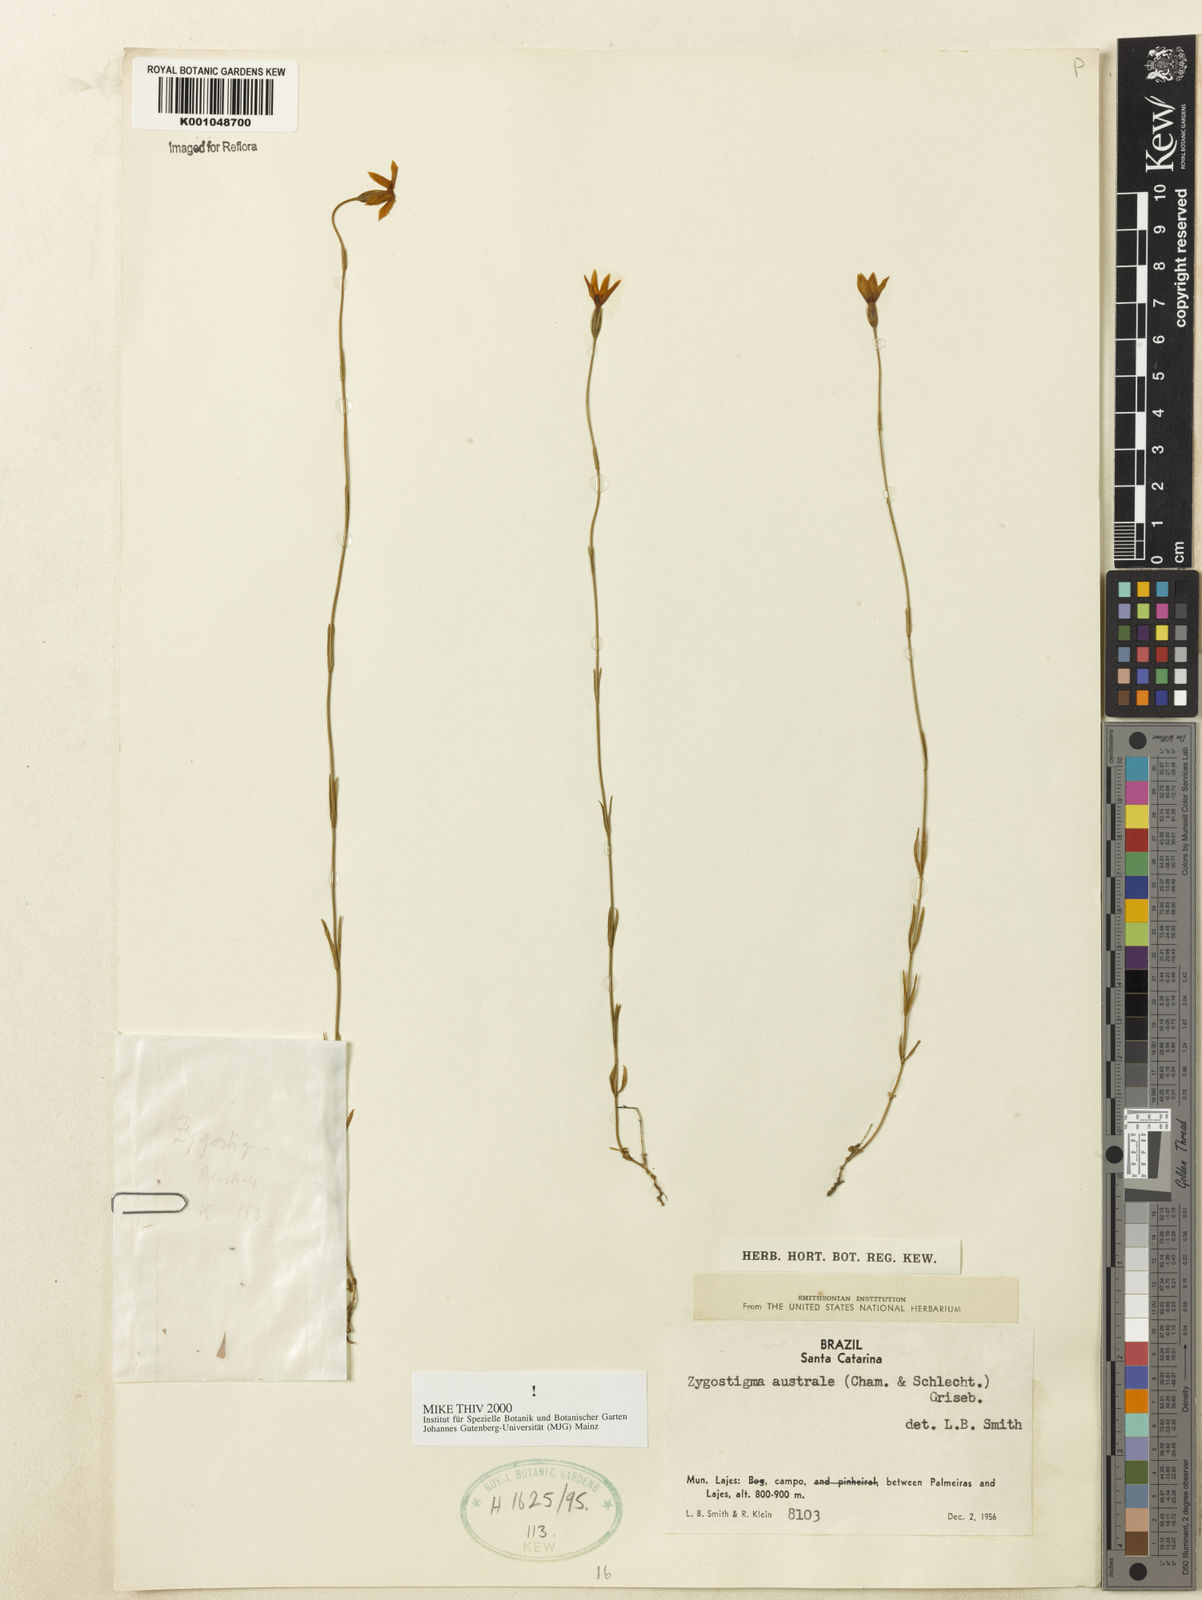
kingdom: Plantae
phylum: Tracheophyta
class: Magnoliopsida
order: Gentianales
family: Gentianaceae
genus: Zygostigma
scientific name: Zygostigma australe
